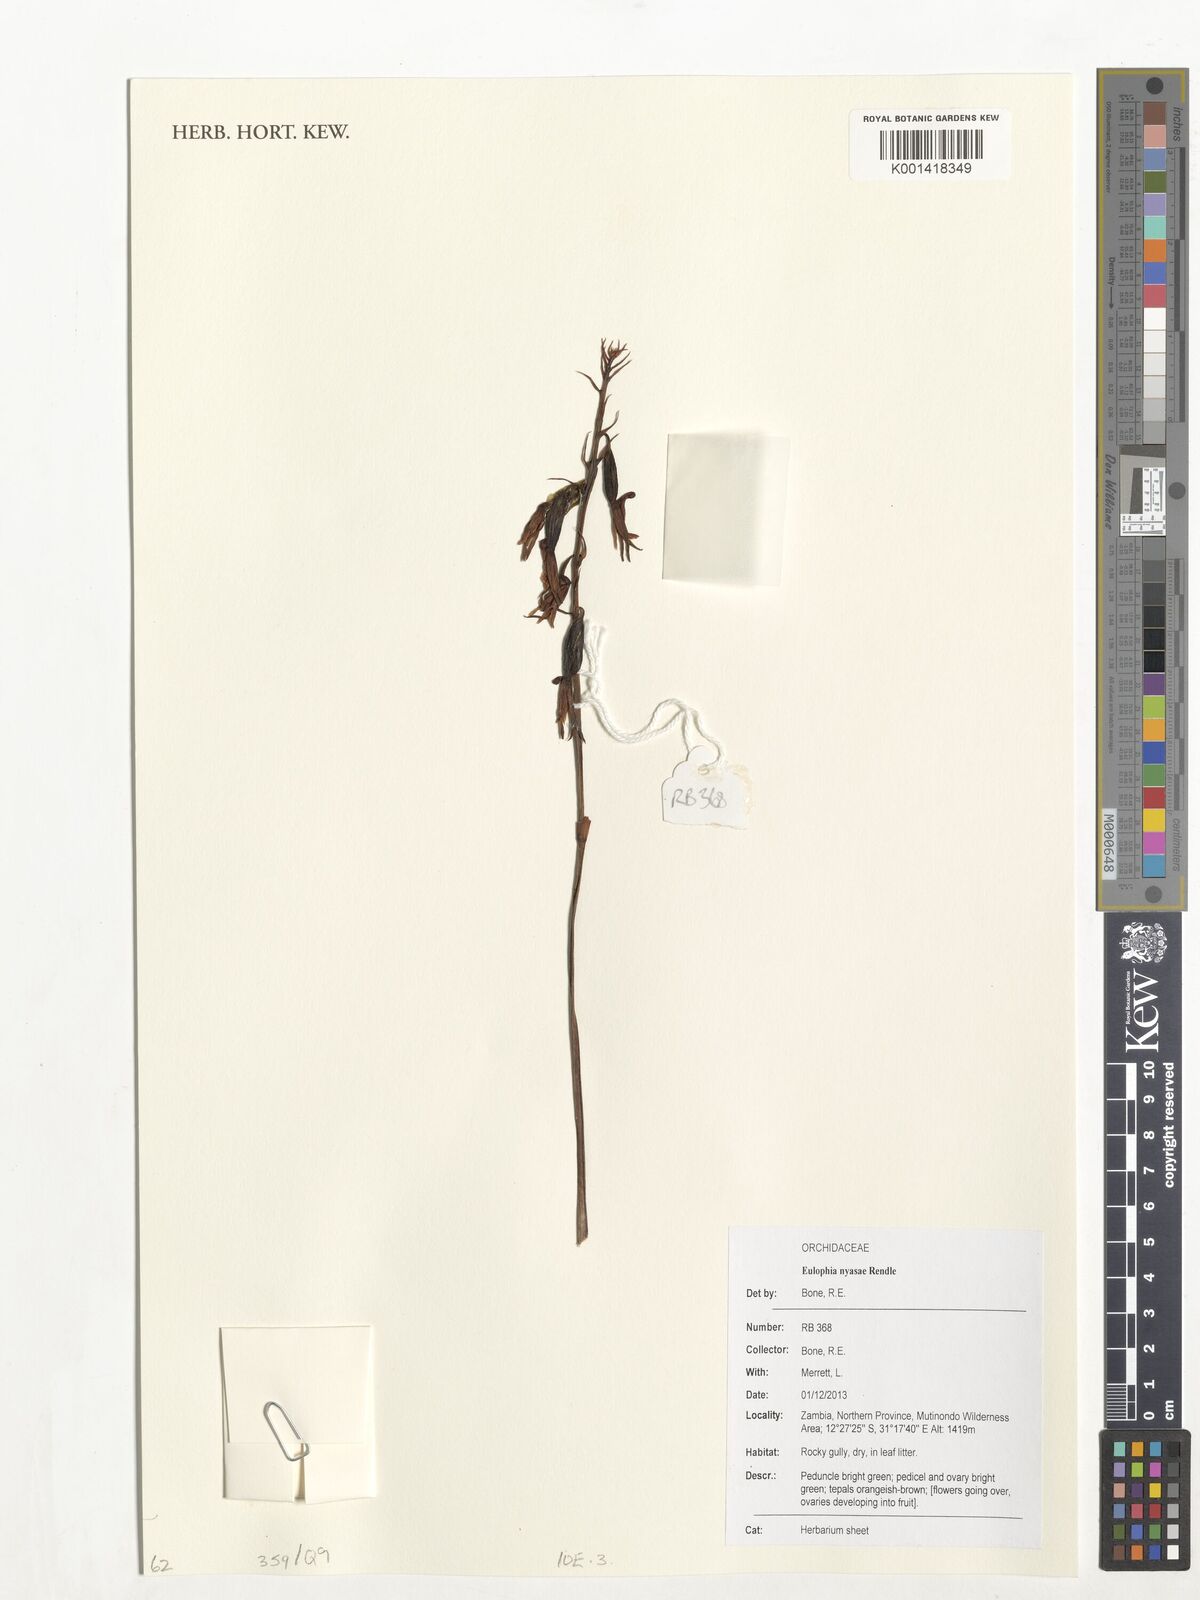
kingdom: Plantae
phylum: Tracheophyta
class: Liliopsida
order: Asparagales
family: Orchidaceae
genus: Eulophia
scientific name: Eulophia nyasae
